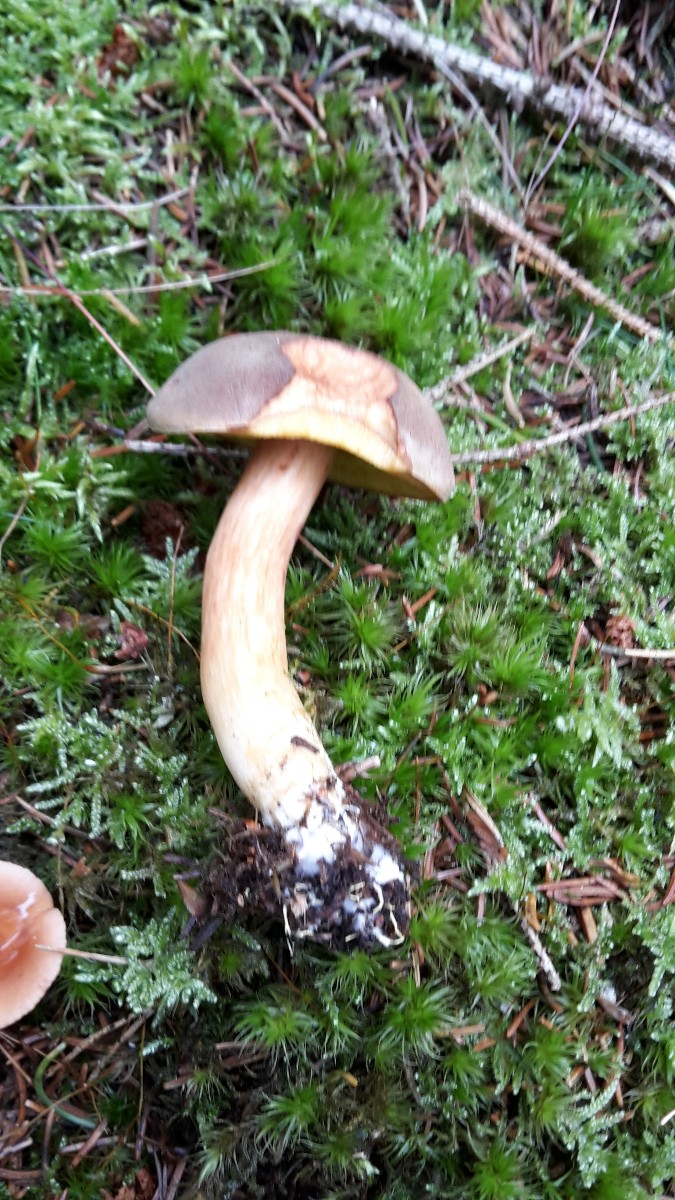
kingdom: Fungi
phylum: Basidiomycota
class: Agaricomycetes
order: Boletales
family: Boletaceae
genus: Xerocomus
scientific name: Xerocomus ferrugineus
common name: vaskeskinds-rørhat
